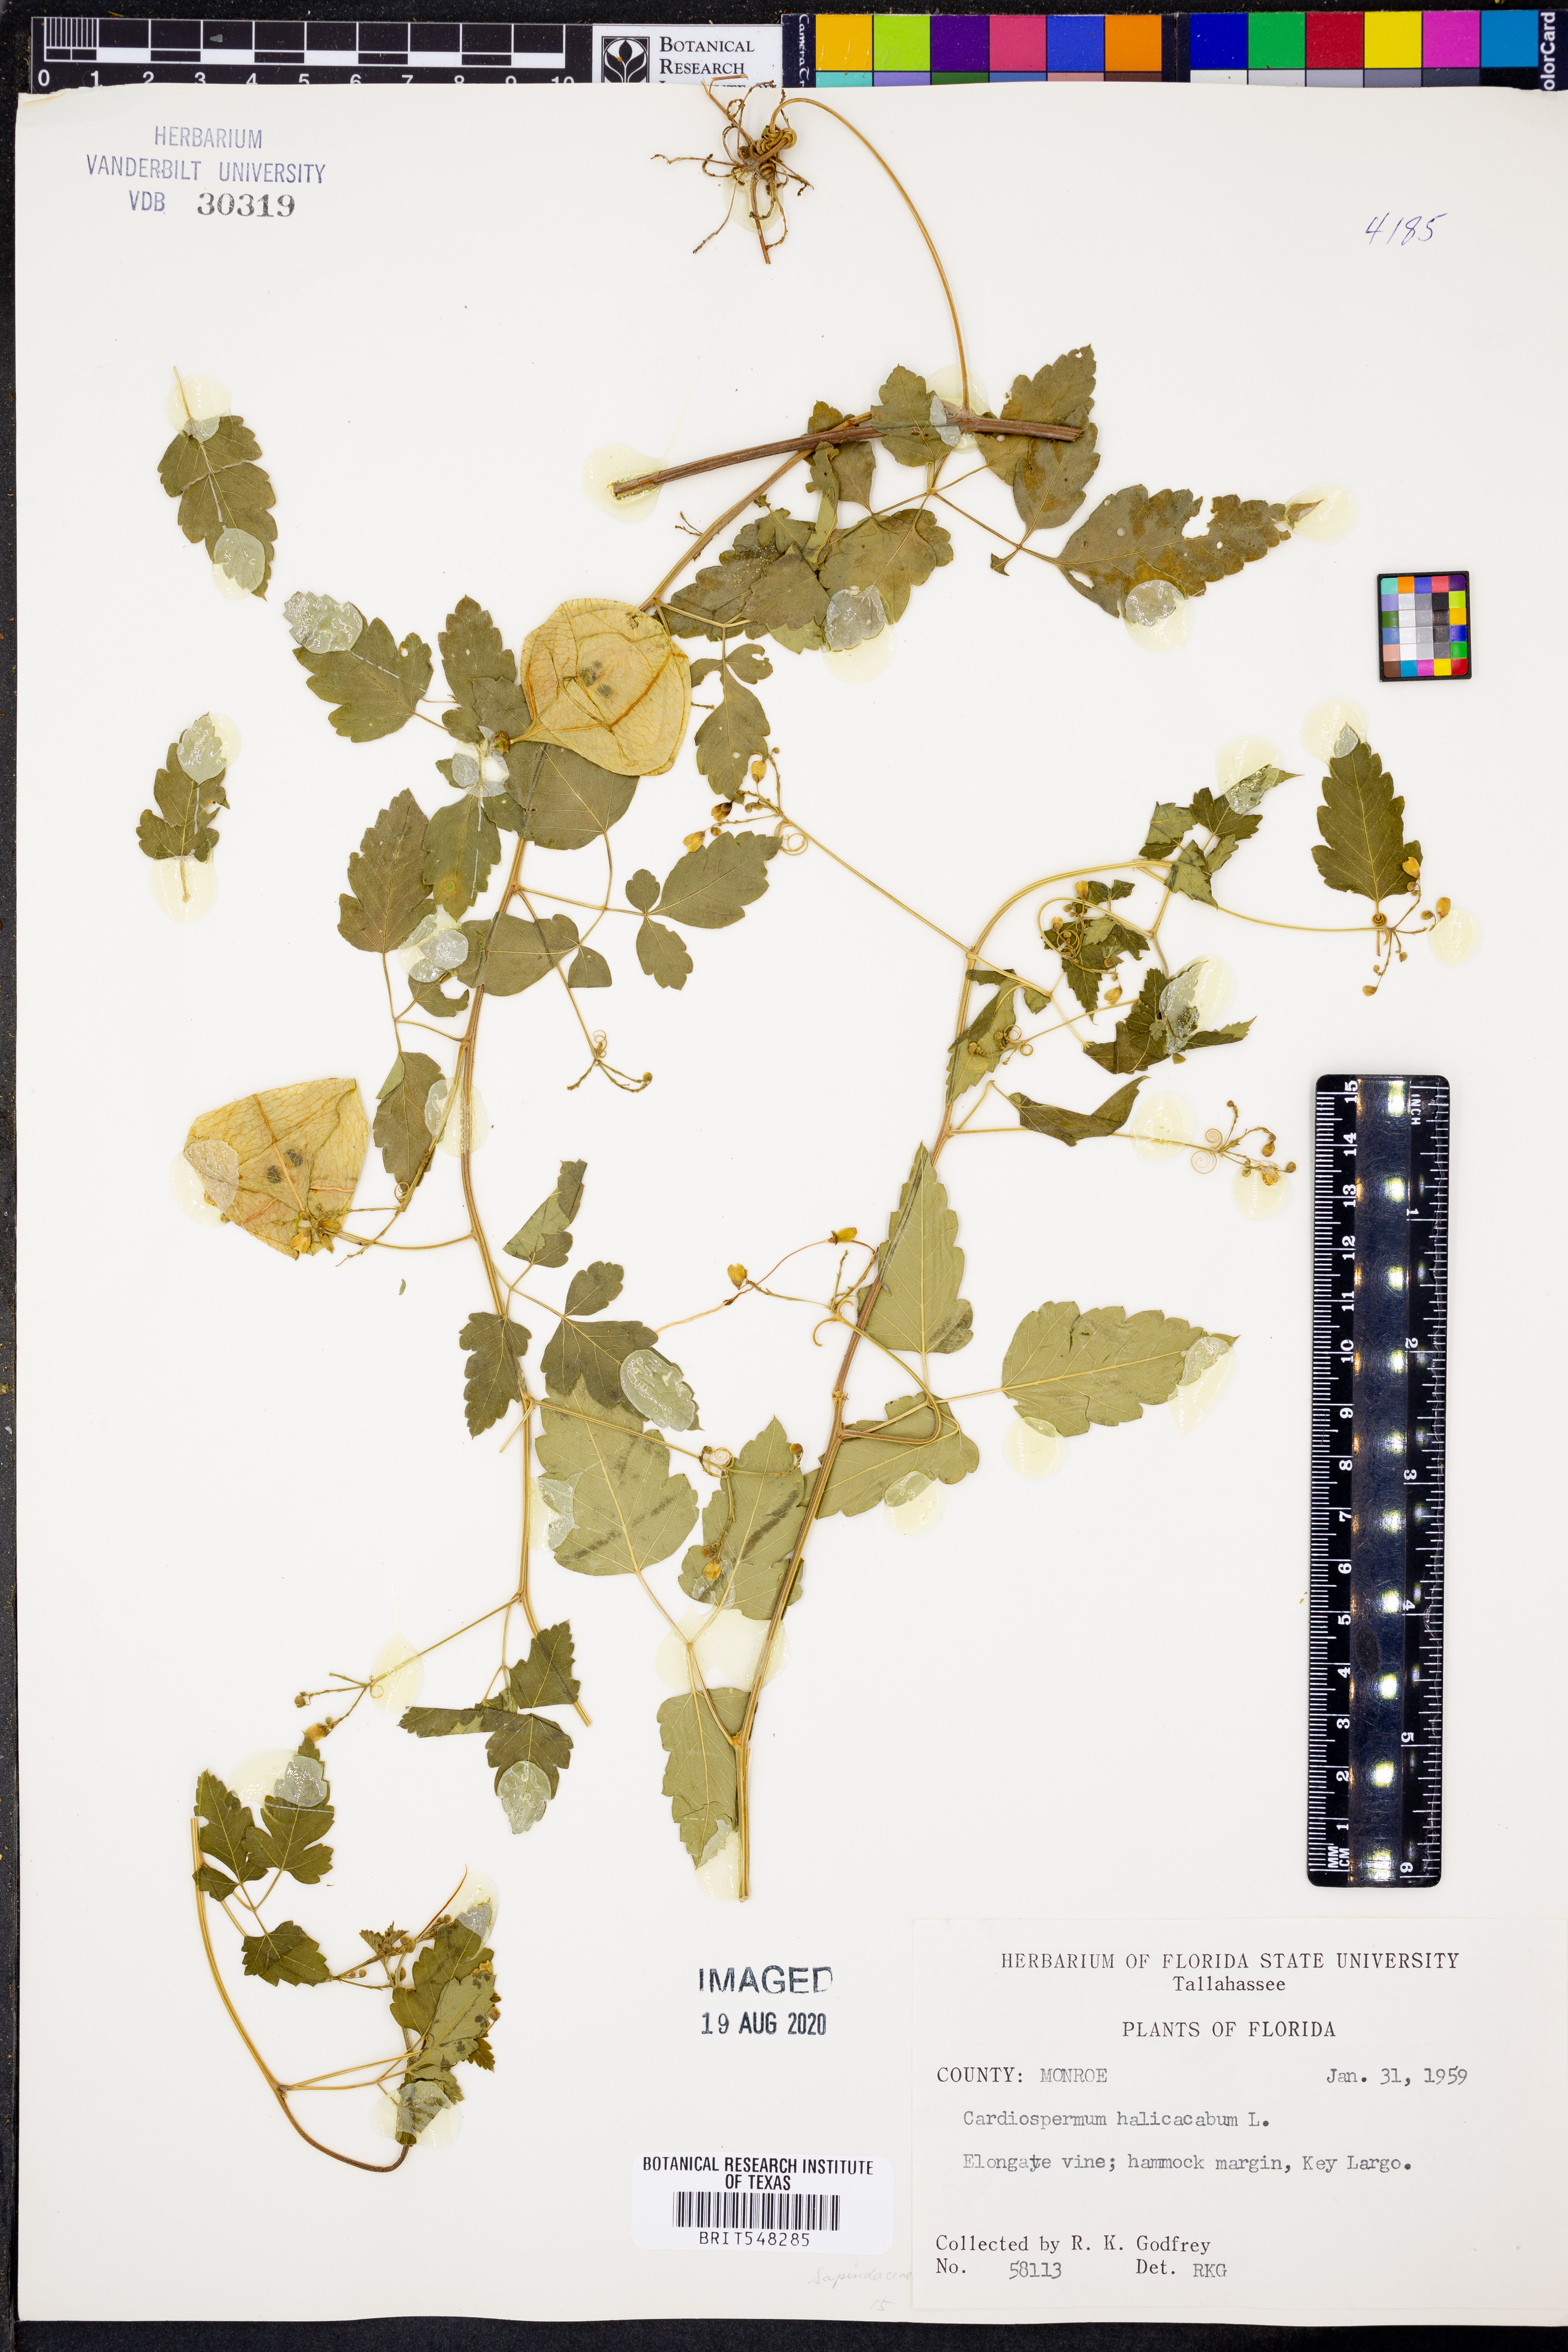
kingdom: Plantae
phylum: Tracheophyta
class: Magnoliopsida
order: Sapindales
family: Sapindaceae
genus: Cardiospermum
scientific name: Cardiospermum halicacabum
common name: Balloon vine
